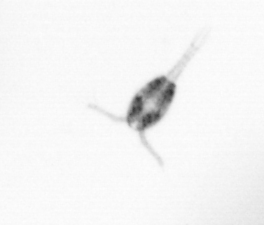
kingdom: Animalia
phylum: Arthropoda
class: Copepoda
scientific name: Copepoda
